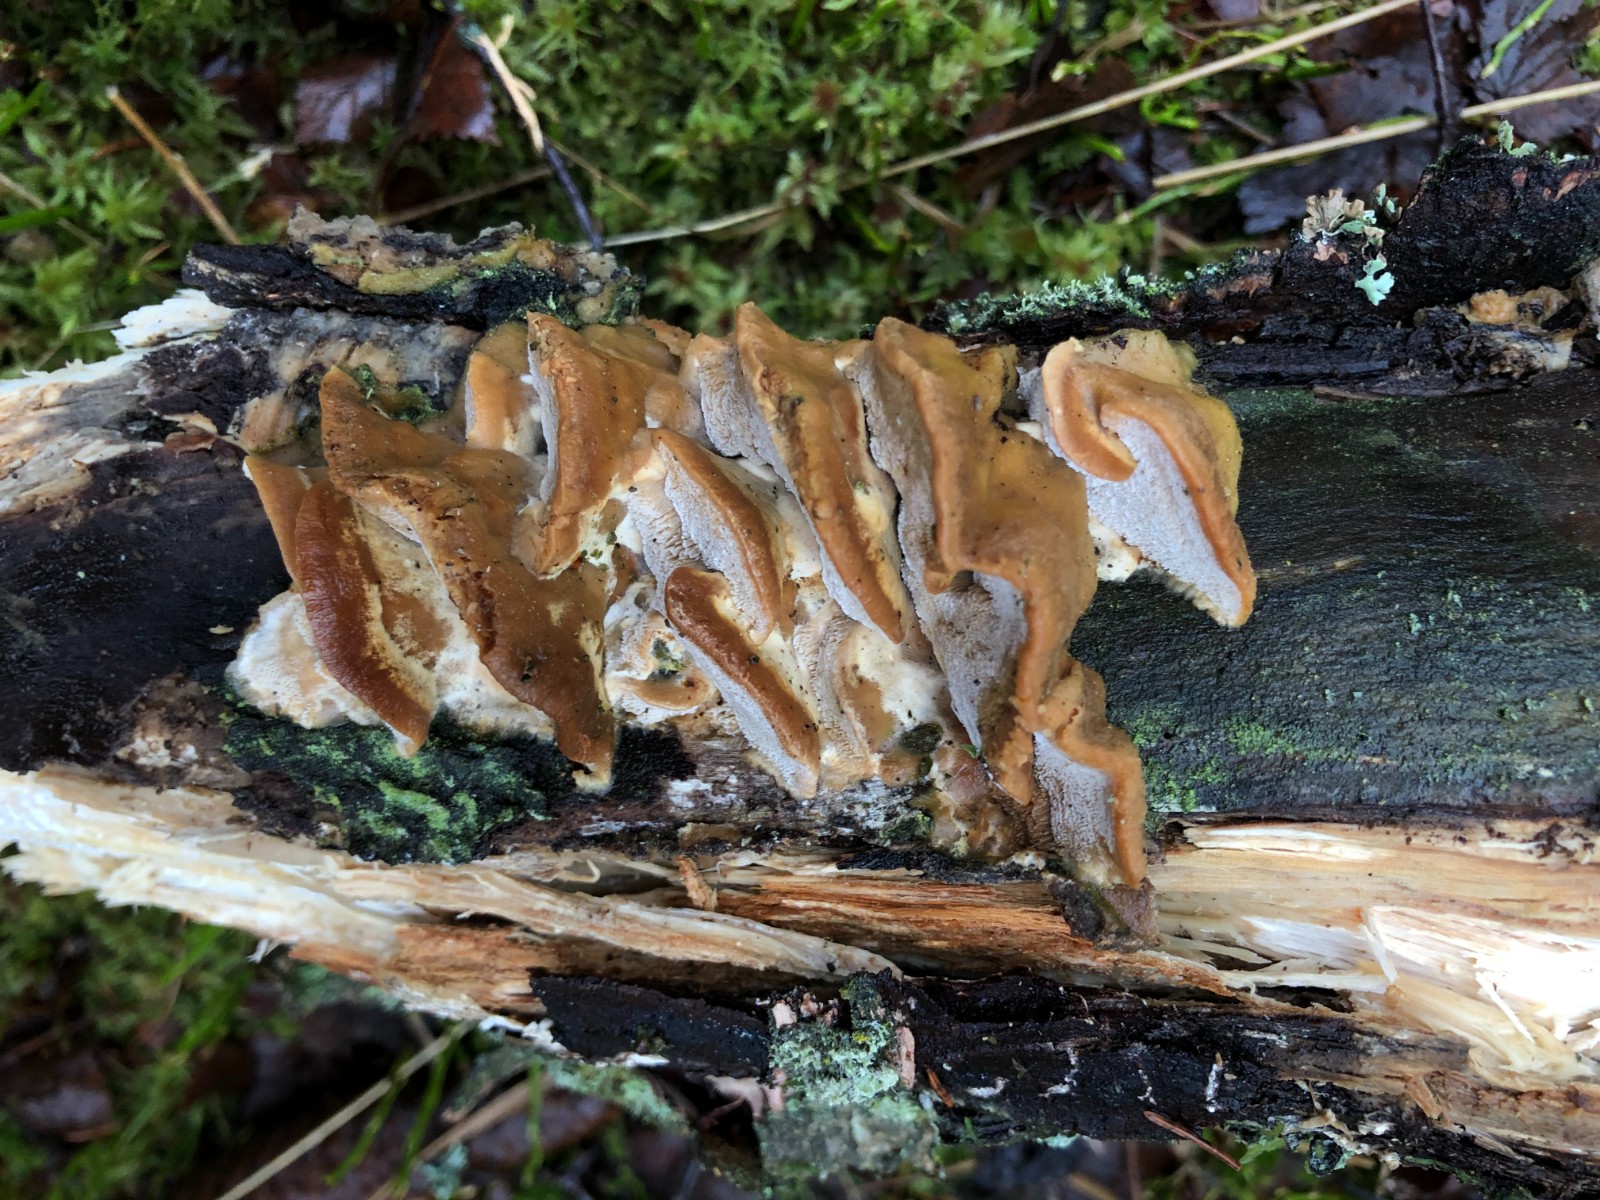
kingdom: Fungi
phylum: Basidiomycota
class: Agaricomycetes
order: Polyporales
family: Phanerochaetaceae
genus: Bjerkandera
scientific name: Bjerkandera fumosa
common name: grågul sodporesvamp
